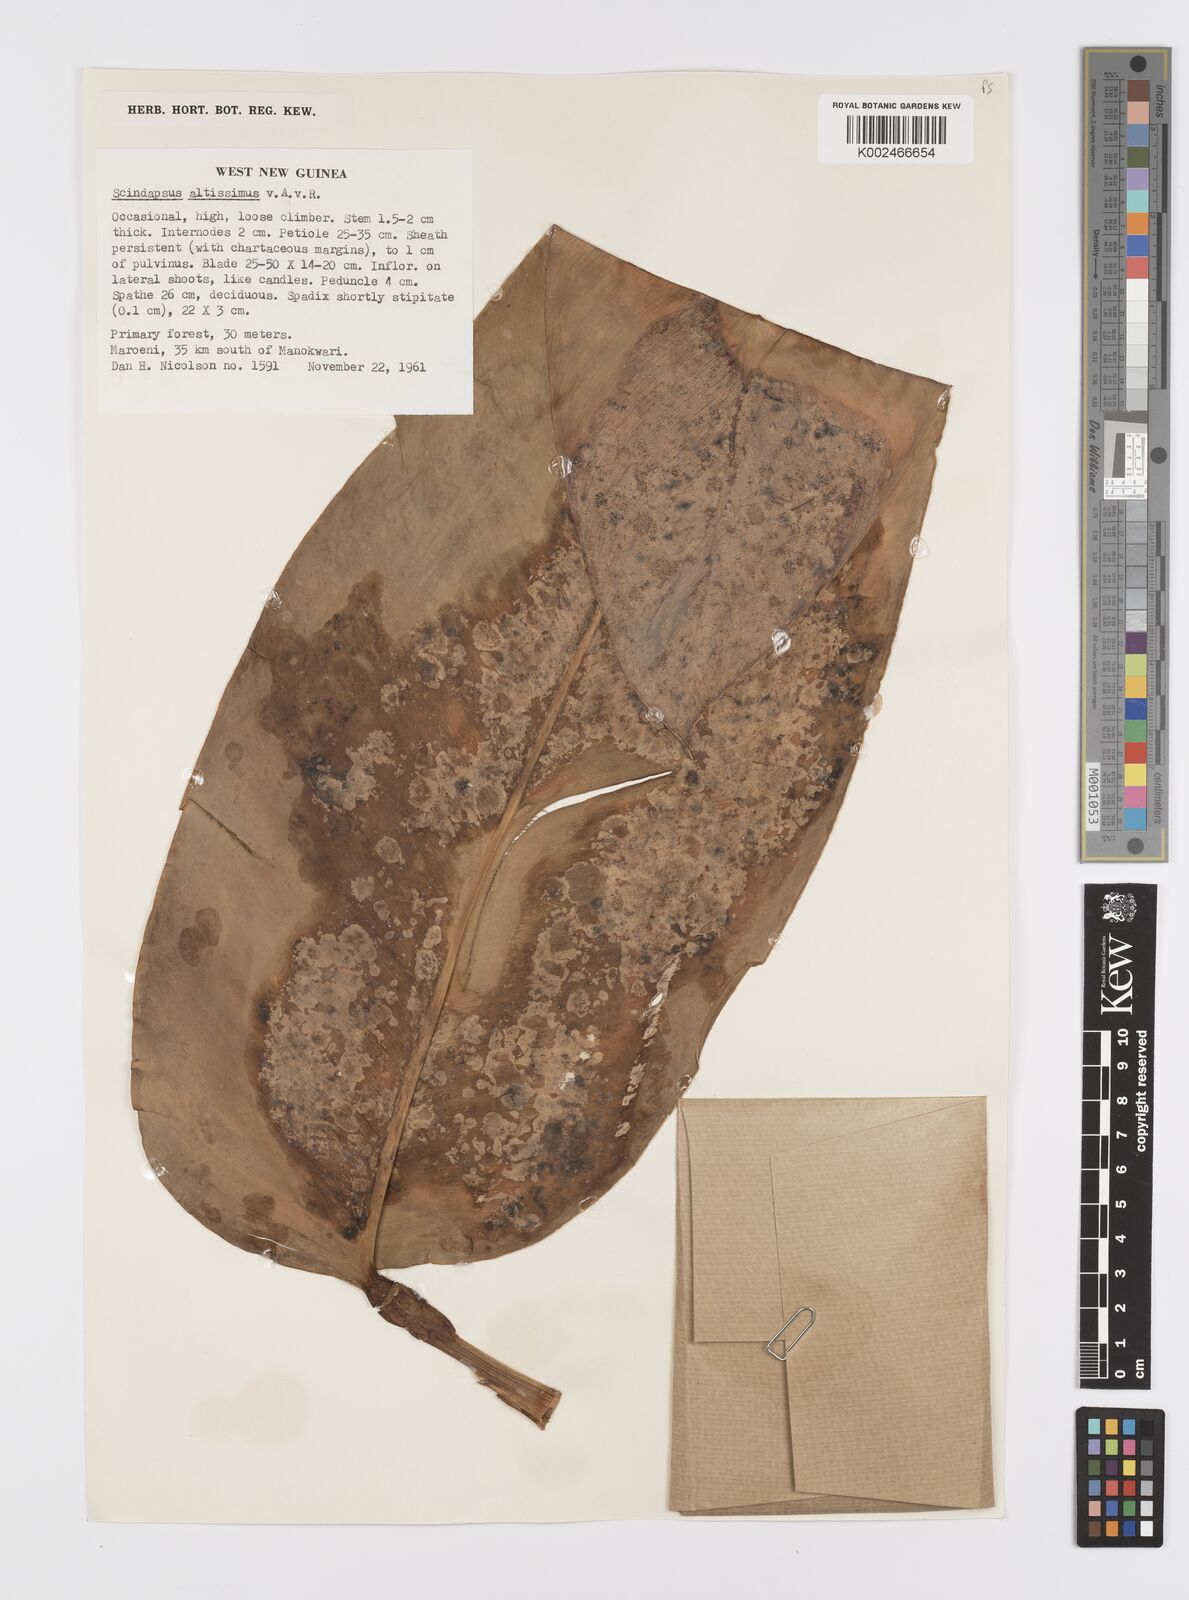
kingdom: Plantae
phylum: Tracheophyta
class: Liliopsida
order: Alismatales
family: Araceae
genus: Scindapsus
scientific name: Scindapsus altissimus
